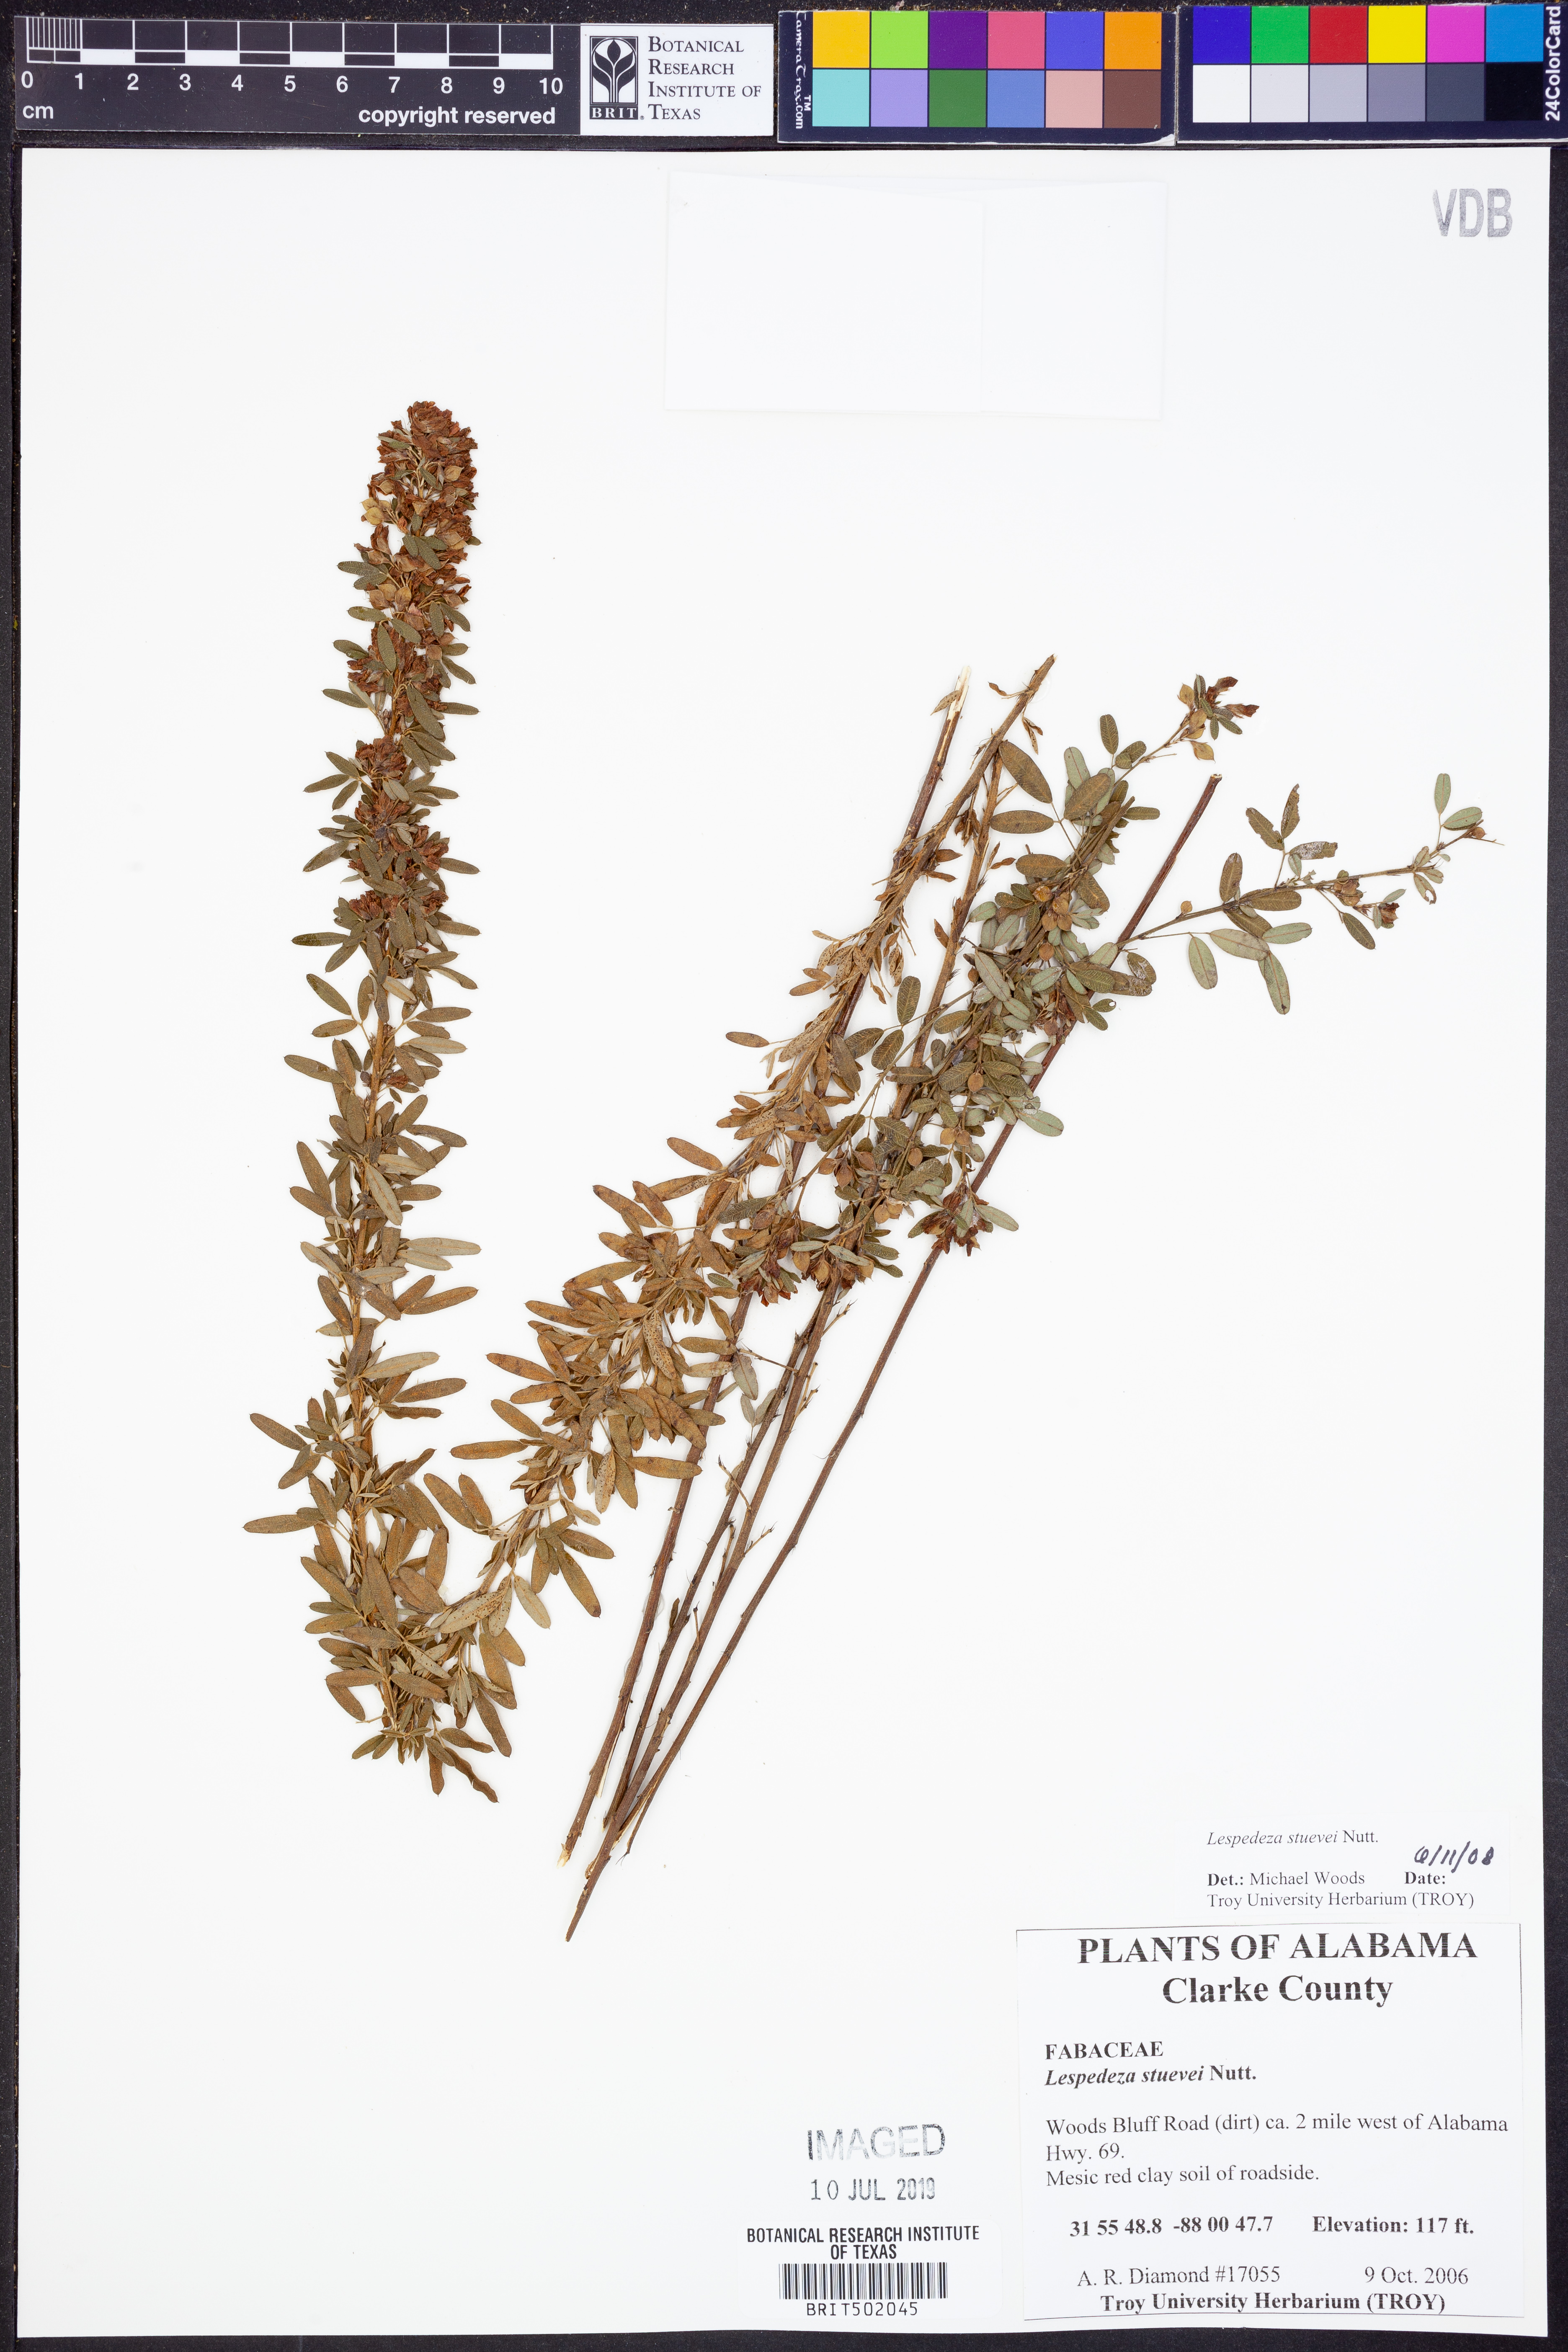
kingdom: Plantae
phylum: Tracheophyta
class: Magnoliopsida
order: Fabales
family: Fabaceae
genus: Lespedeza
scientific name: Lespedeza stuevei
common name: Tall bush-clover
